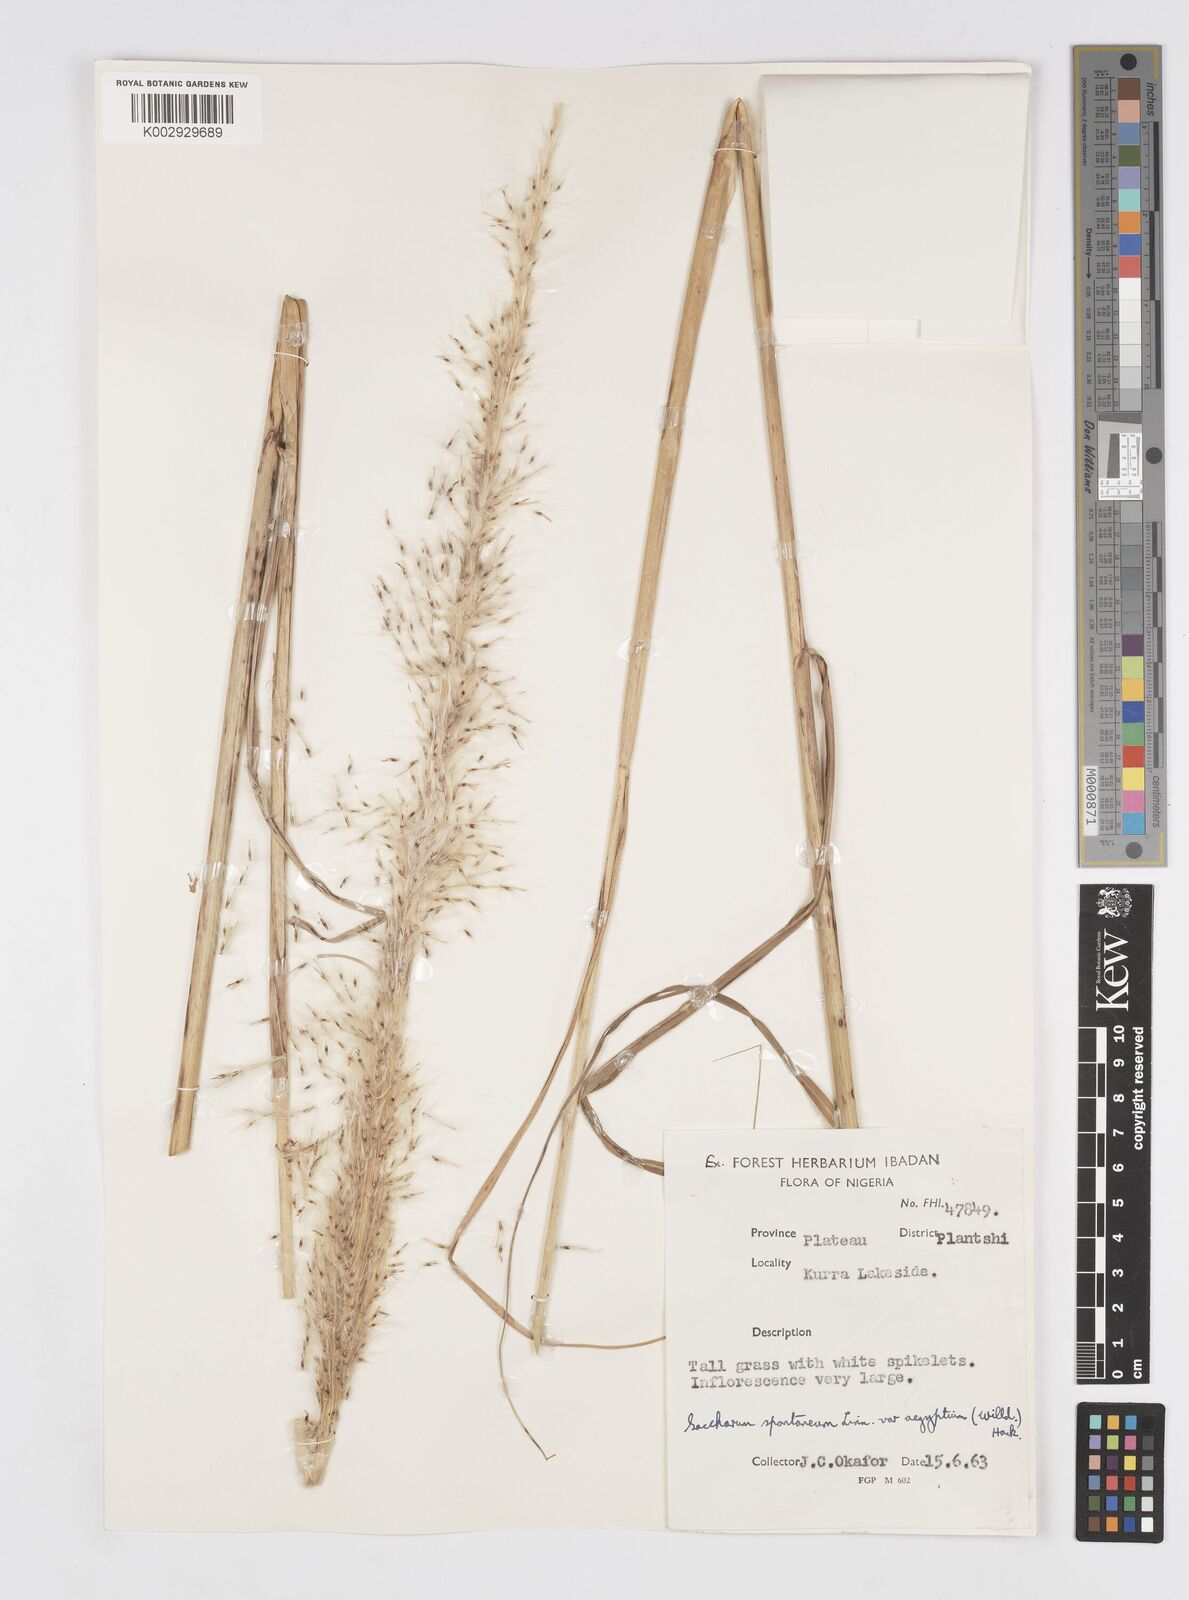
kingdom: Plantae
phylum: Tracheophyta
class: Liliopsida
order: Poales
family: Poaceae
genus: Saccharum
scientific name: Saccharum spontaneum
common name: Wild sugarcane
